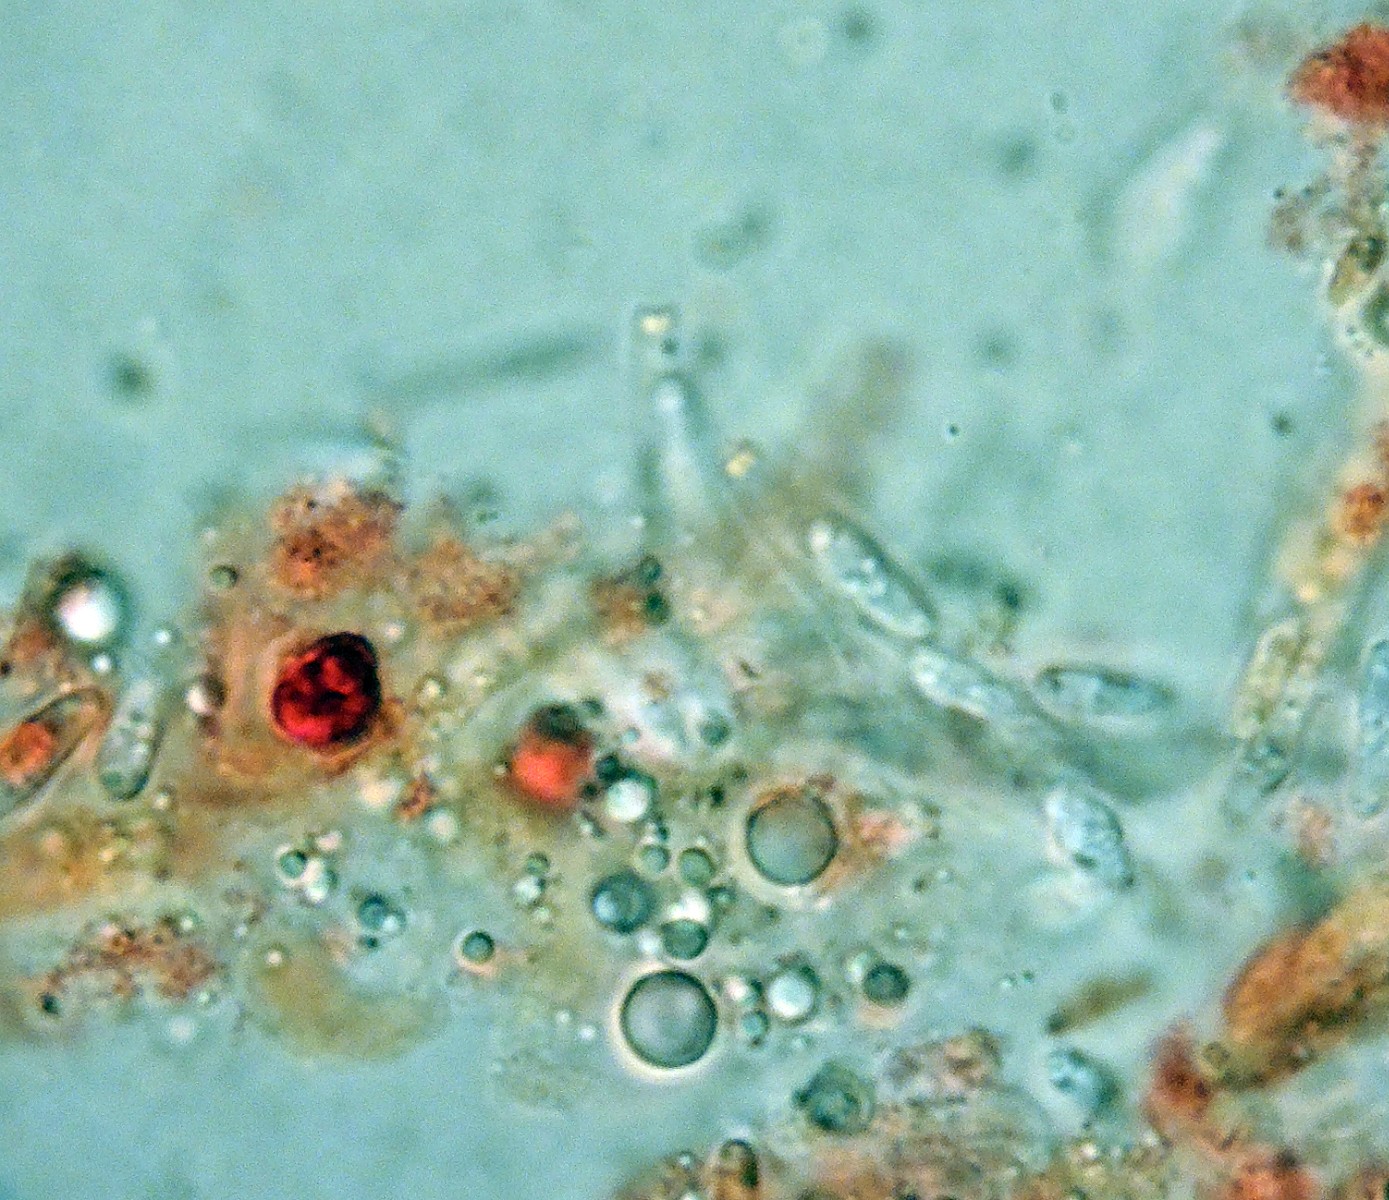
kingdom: Fungi
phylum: Ascomycota
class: Sordariomycetes
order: Diaporthales
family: Sydowiellaceae
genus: Breviappendix
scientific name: Breviappendix rostellata
